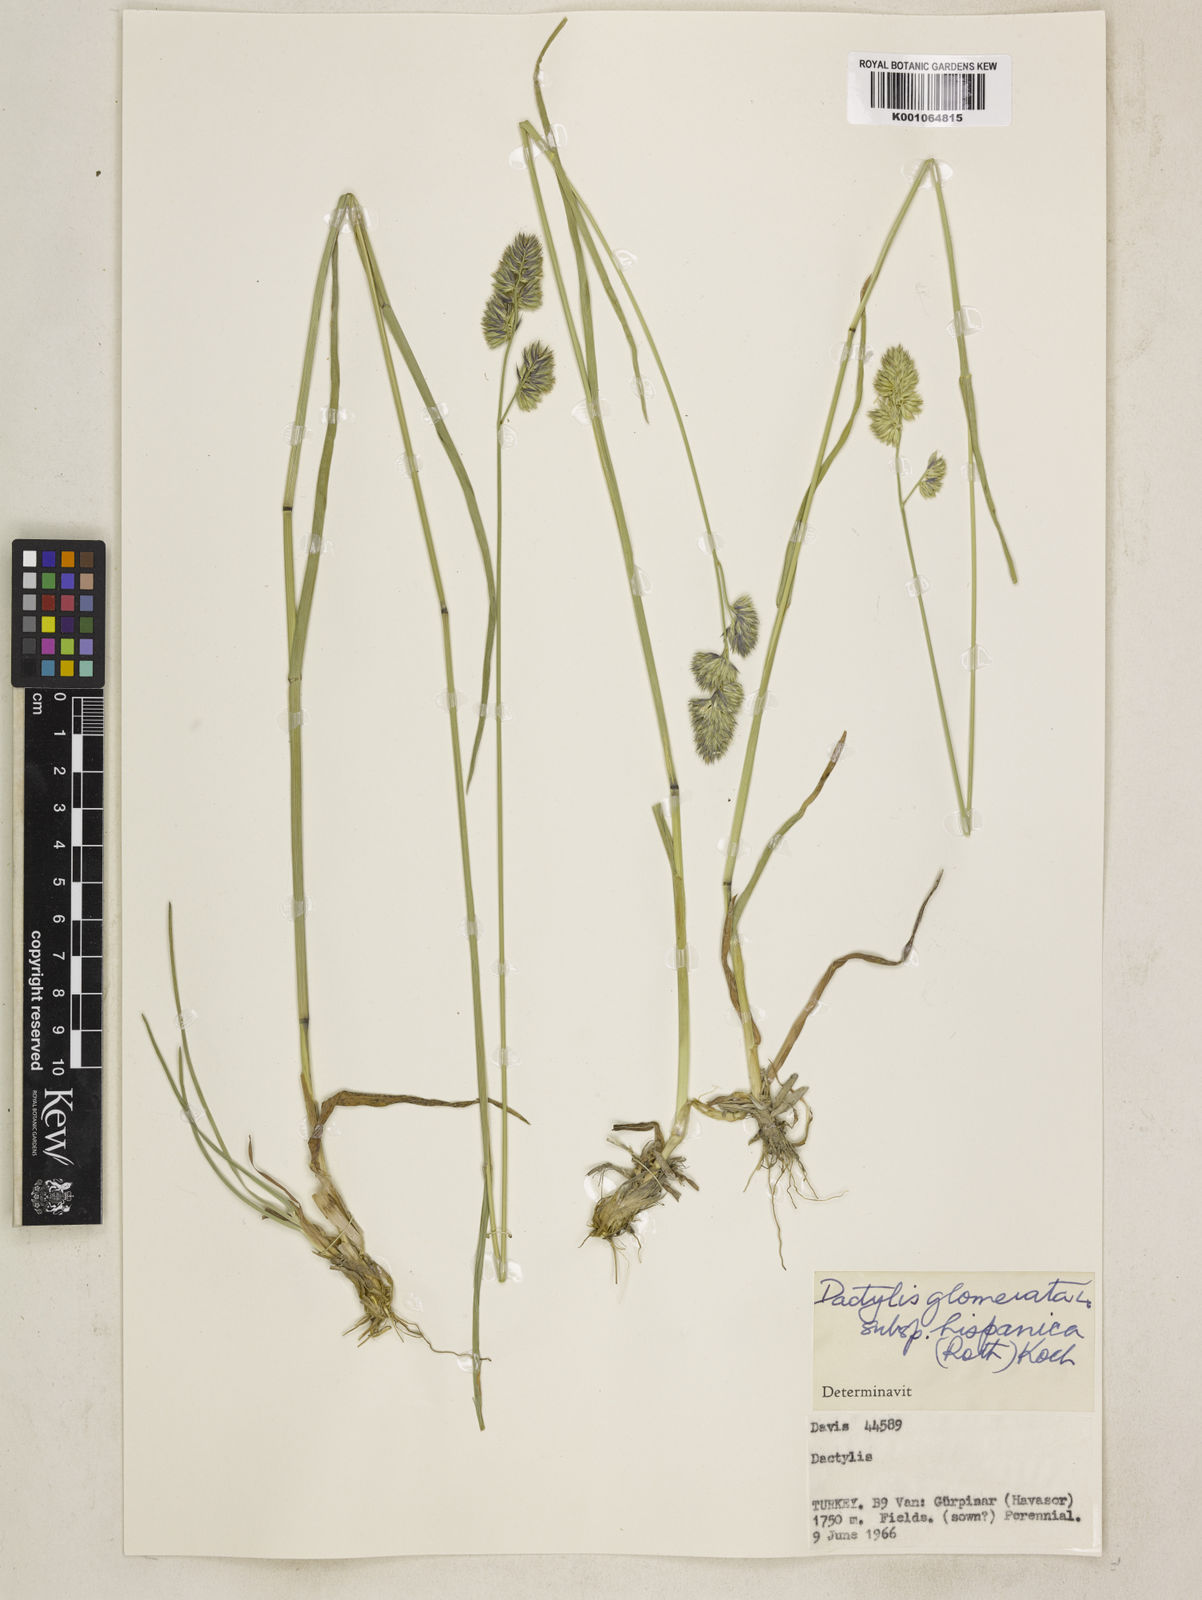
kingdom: Plantae
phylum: Tracheophyta
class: Liliopsida
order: Poales
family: Poaceae
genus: Dactylis
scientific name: Dactylis glomerata
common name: Orchardgrass
